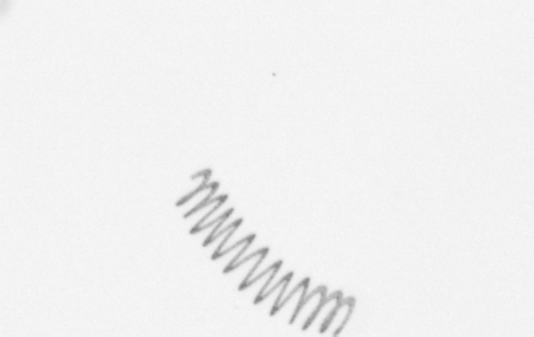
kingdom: Chromista
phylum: Ochrophyta
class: Bacillariophyceae
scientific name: Bacillariophyceae
